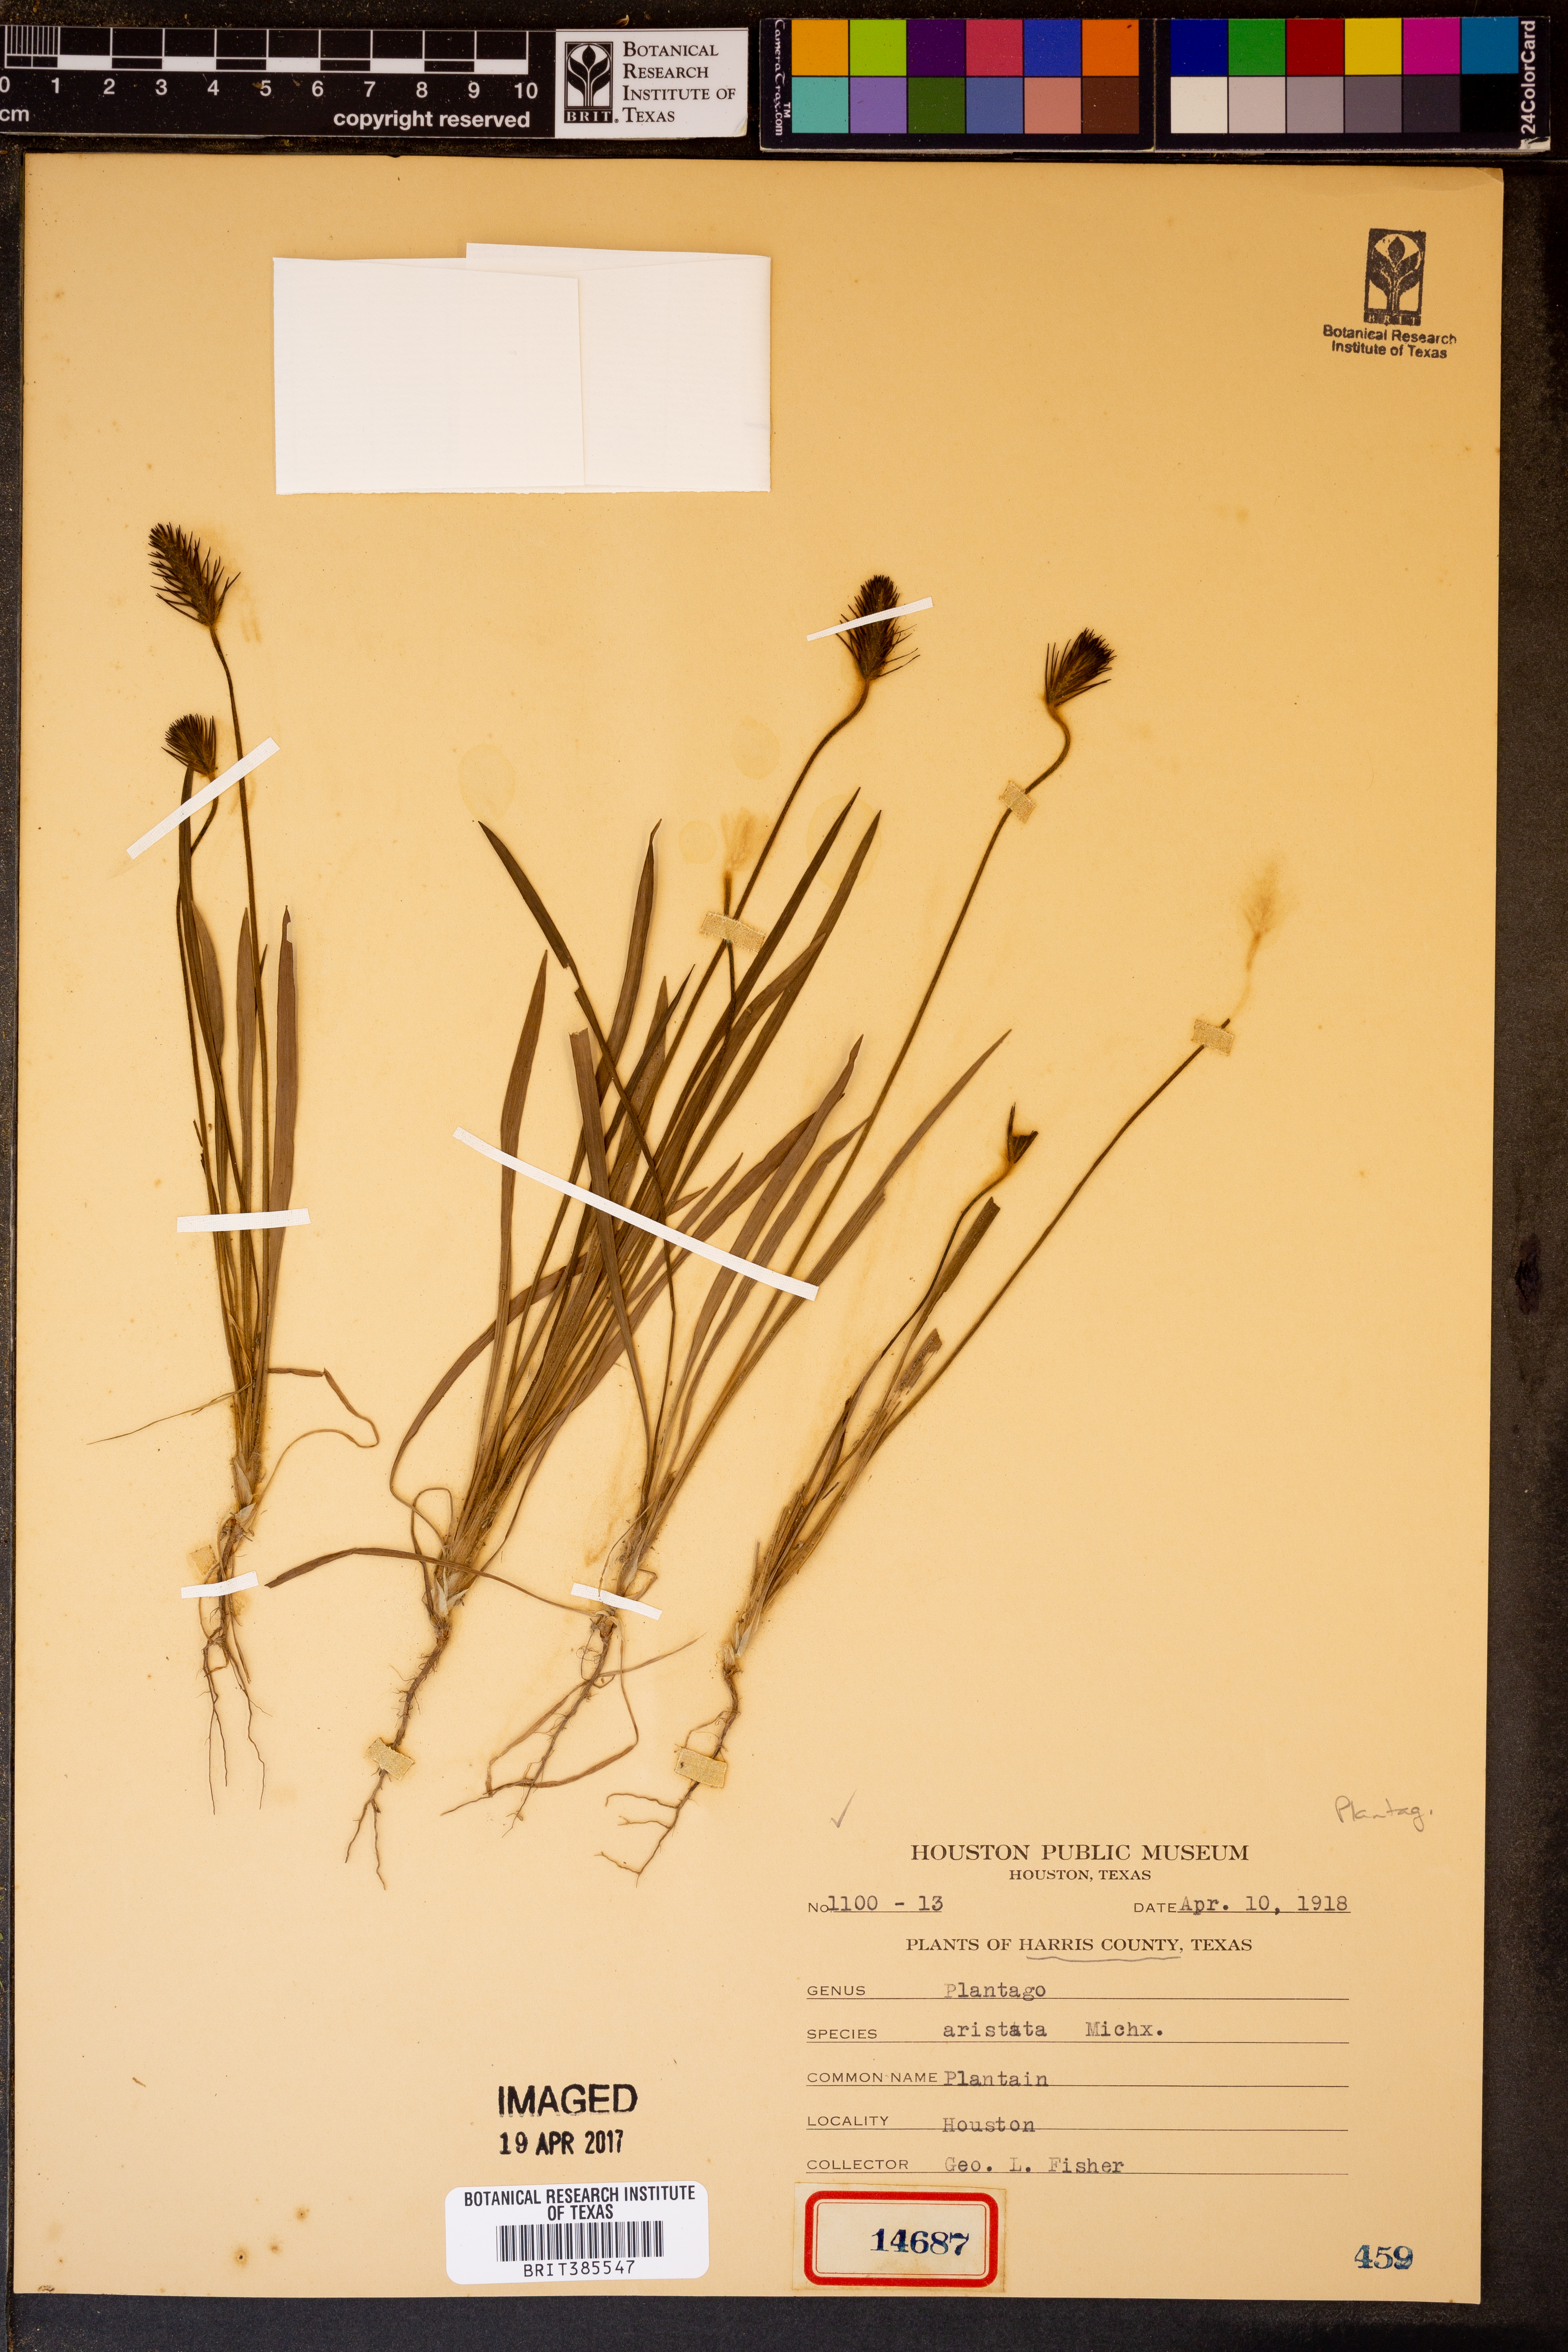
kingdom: Plantae
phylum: Tracheophyta
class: Magnoliopsida
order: Lamiales
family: Plantaginaceae
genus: Plantago
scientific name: Plantago aristata
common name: Bracted plantain
